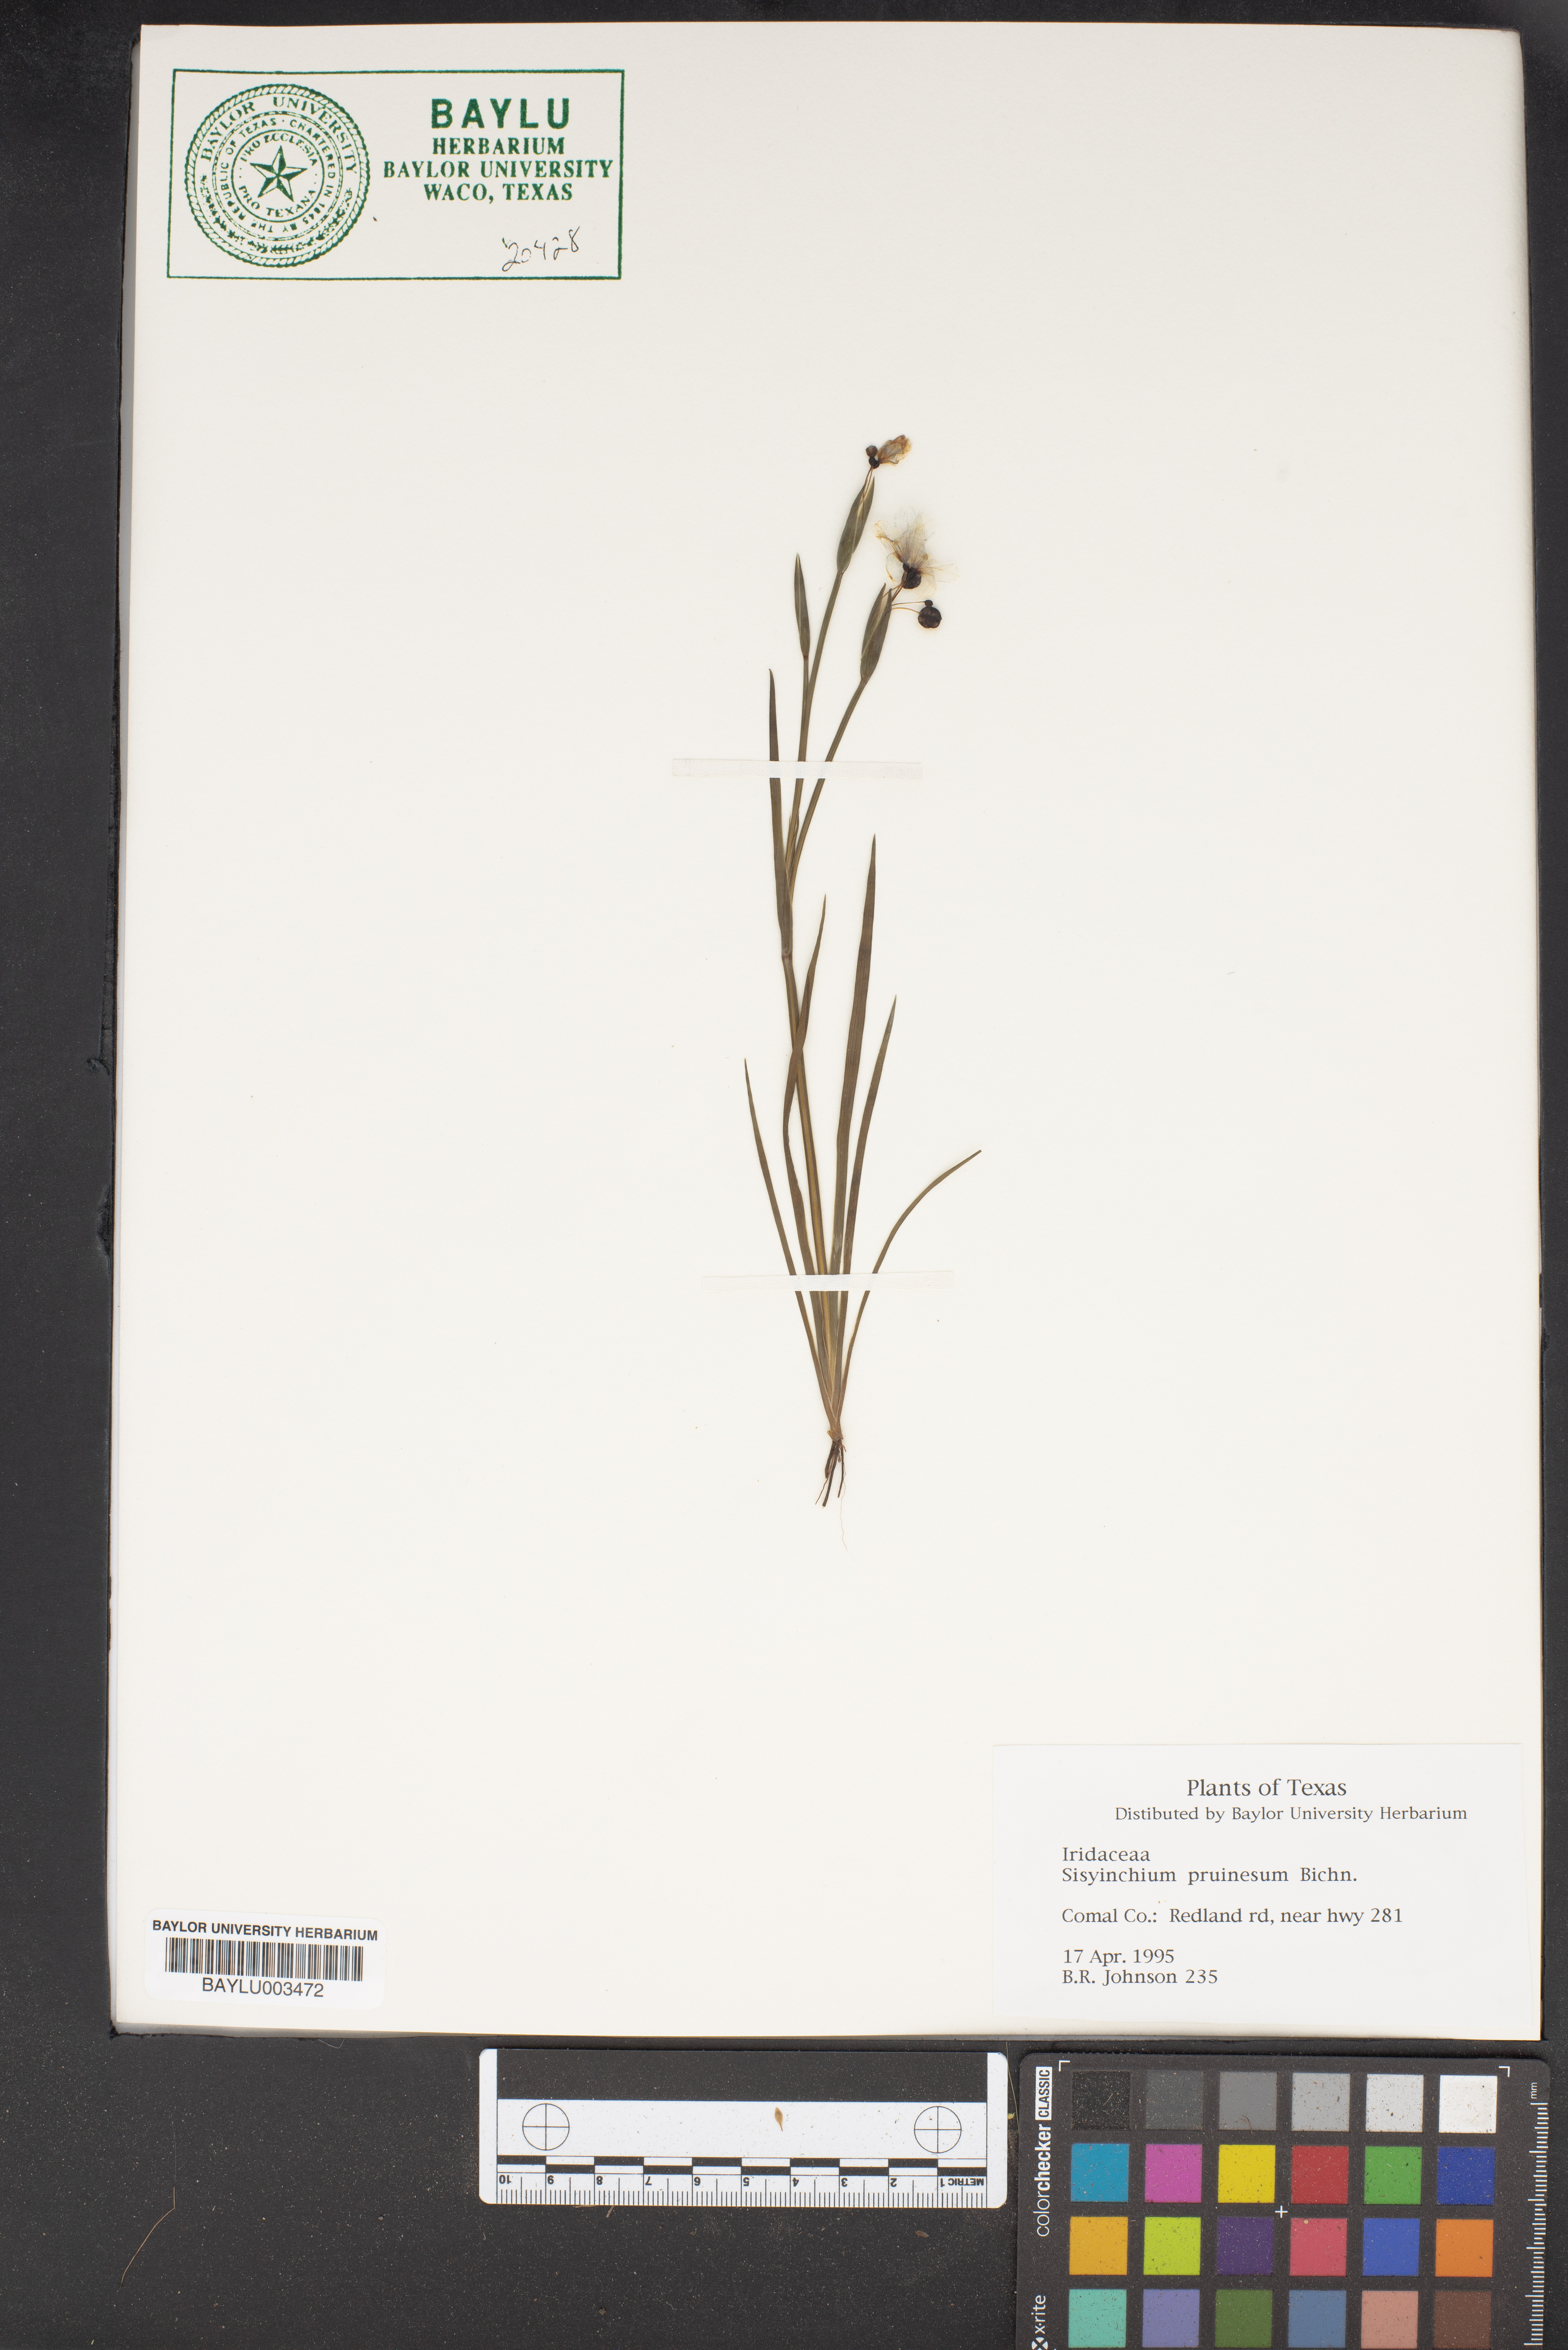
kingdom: Plantae
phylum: Tracheophyta
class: Liliopsida
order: Asparagales
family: Iridaceae
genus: Sisyrinchium
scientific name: Sisyrinchium pruinosum
